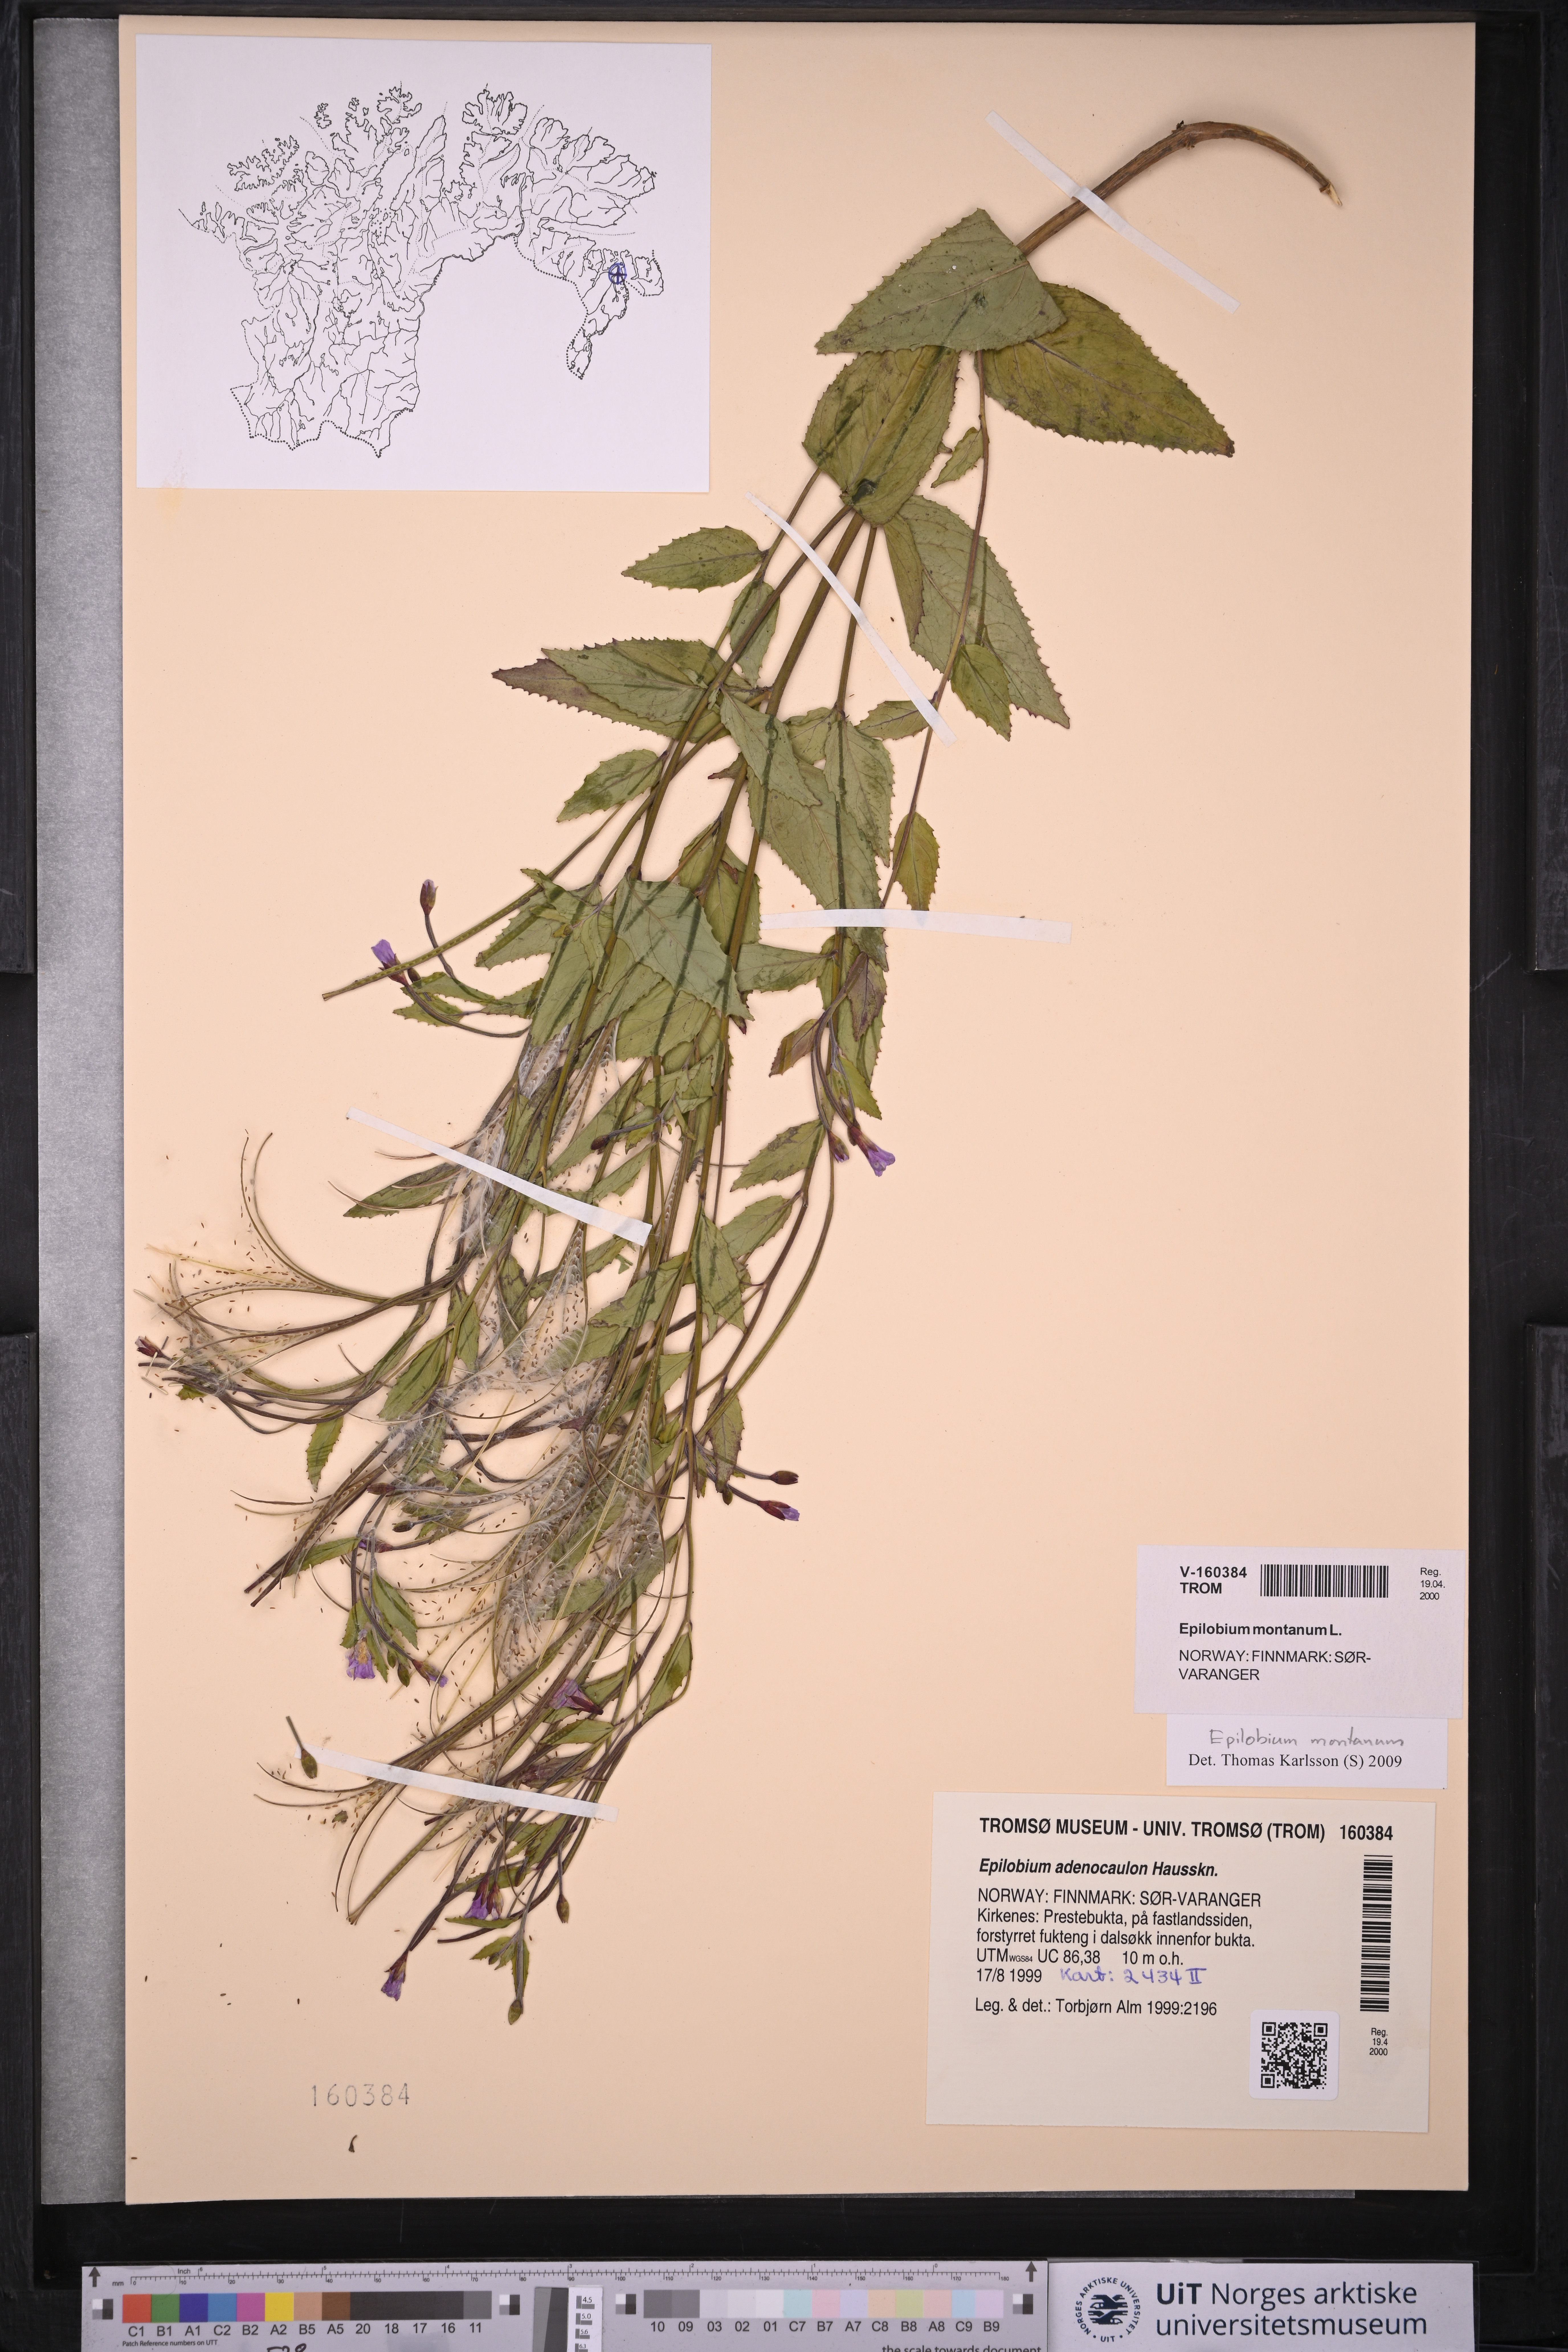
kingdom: Plantae
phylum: Tracheophyta
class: Magnoliopsida
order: Myrtales
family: Onagraceae
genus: Epilobium
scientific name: Epilobium montanum
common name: Broad-leaved willowherb
